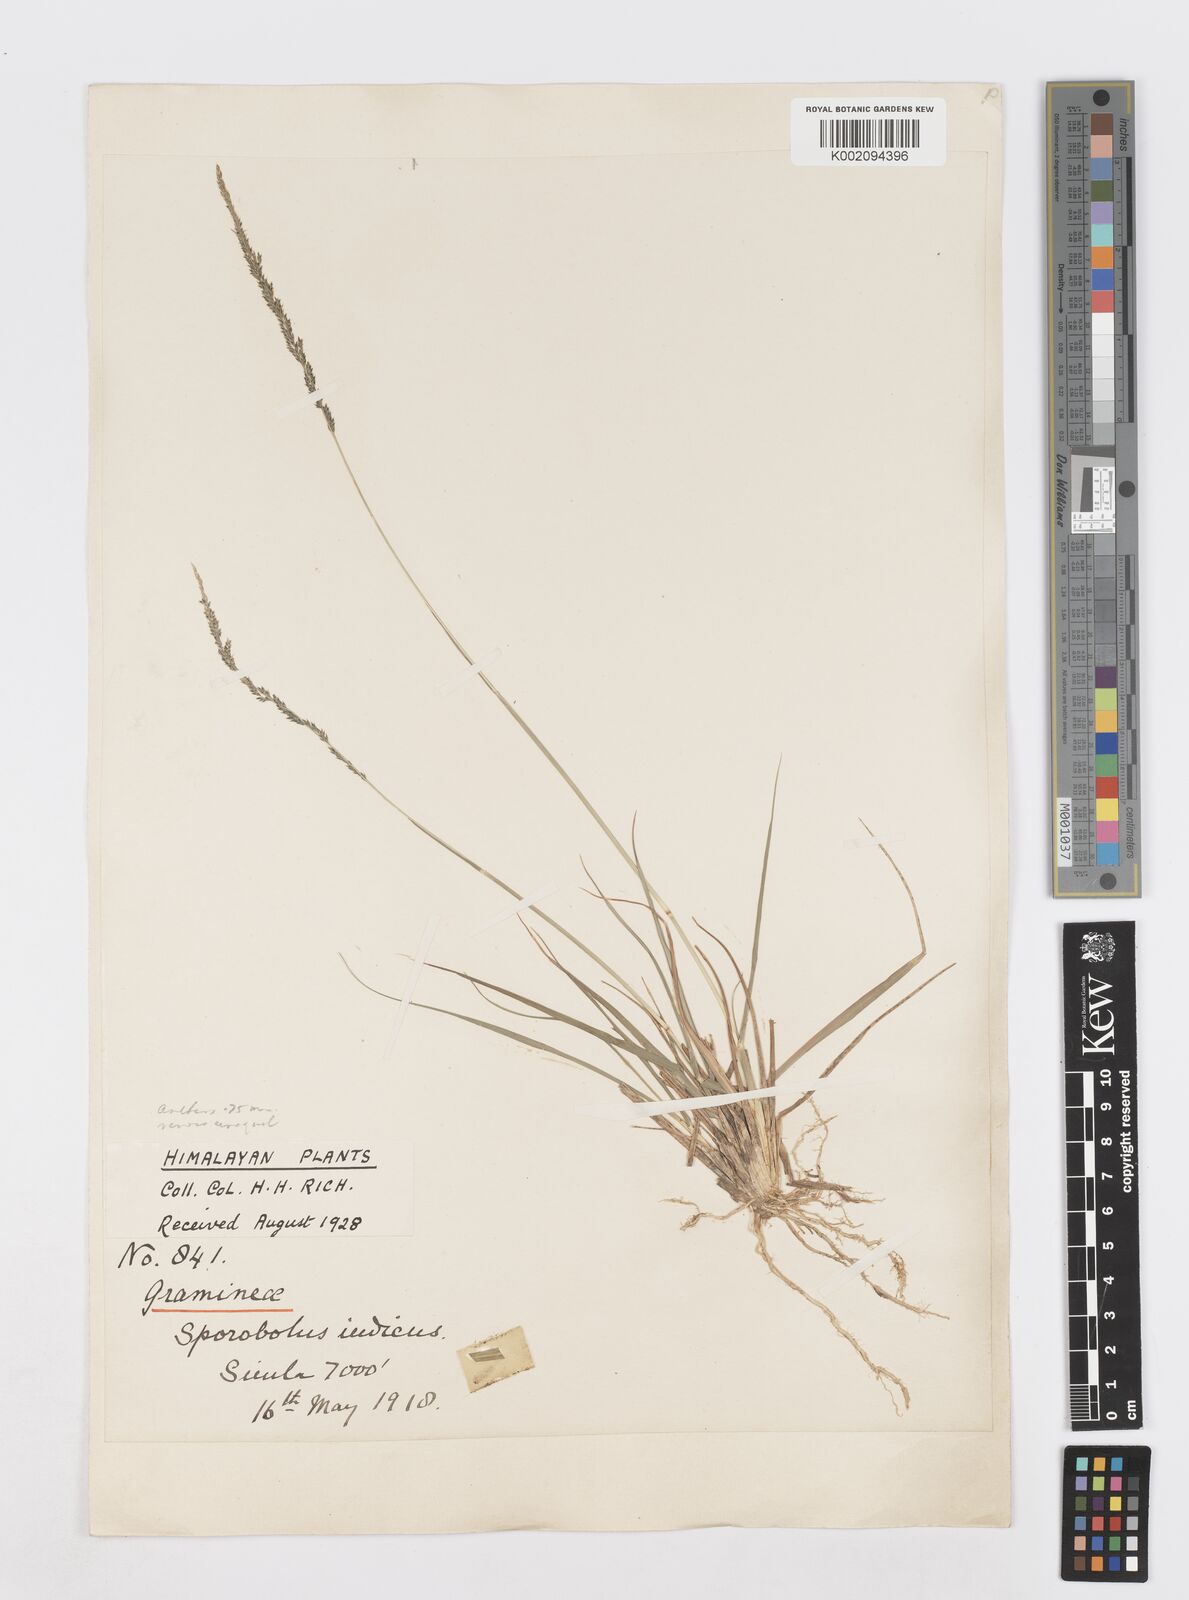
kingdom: Plantae
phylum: Tracheophyta
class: Liliopsida
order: Poales
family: Poaceae
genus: Sporobolus
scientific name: Sporobolus fertilis
